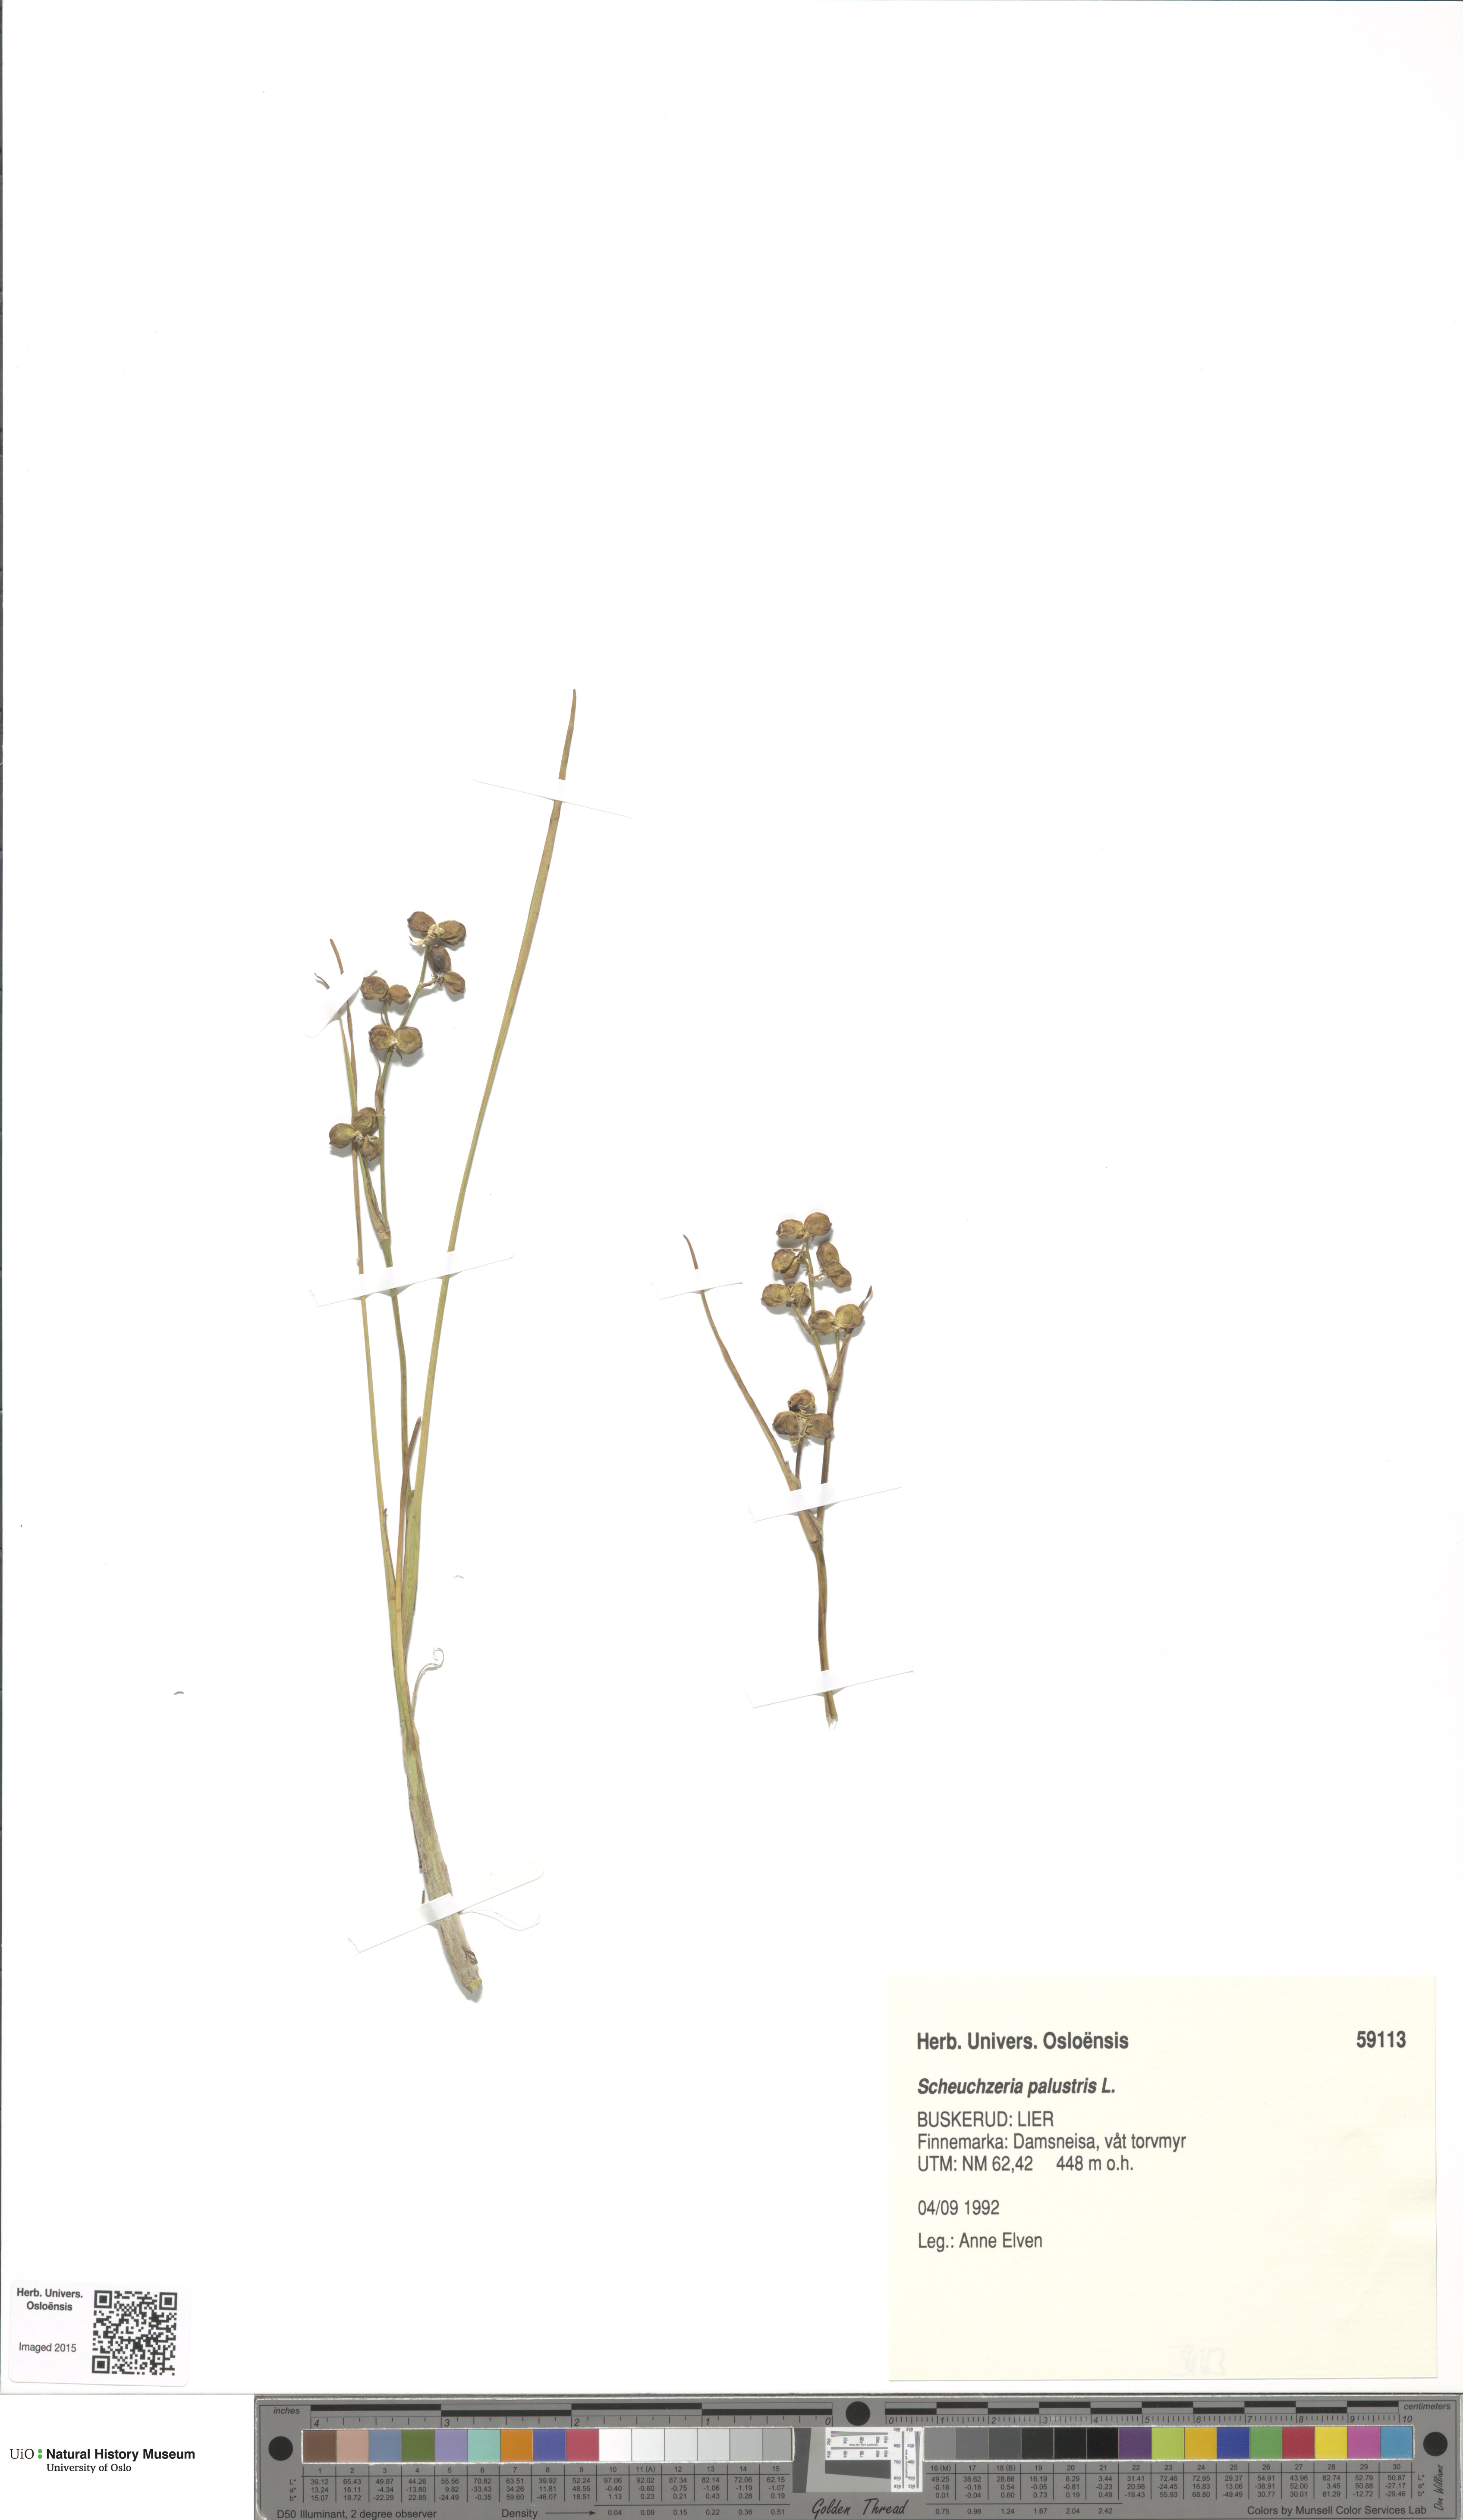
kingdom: Plantae
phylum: Tracheophyta
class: Liliopsida
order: Alismatales
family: Scheuchzeriaceae
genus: Scheuchzeria
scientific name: Scheuchzeria palustris
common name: Rannoch-rush
